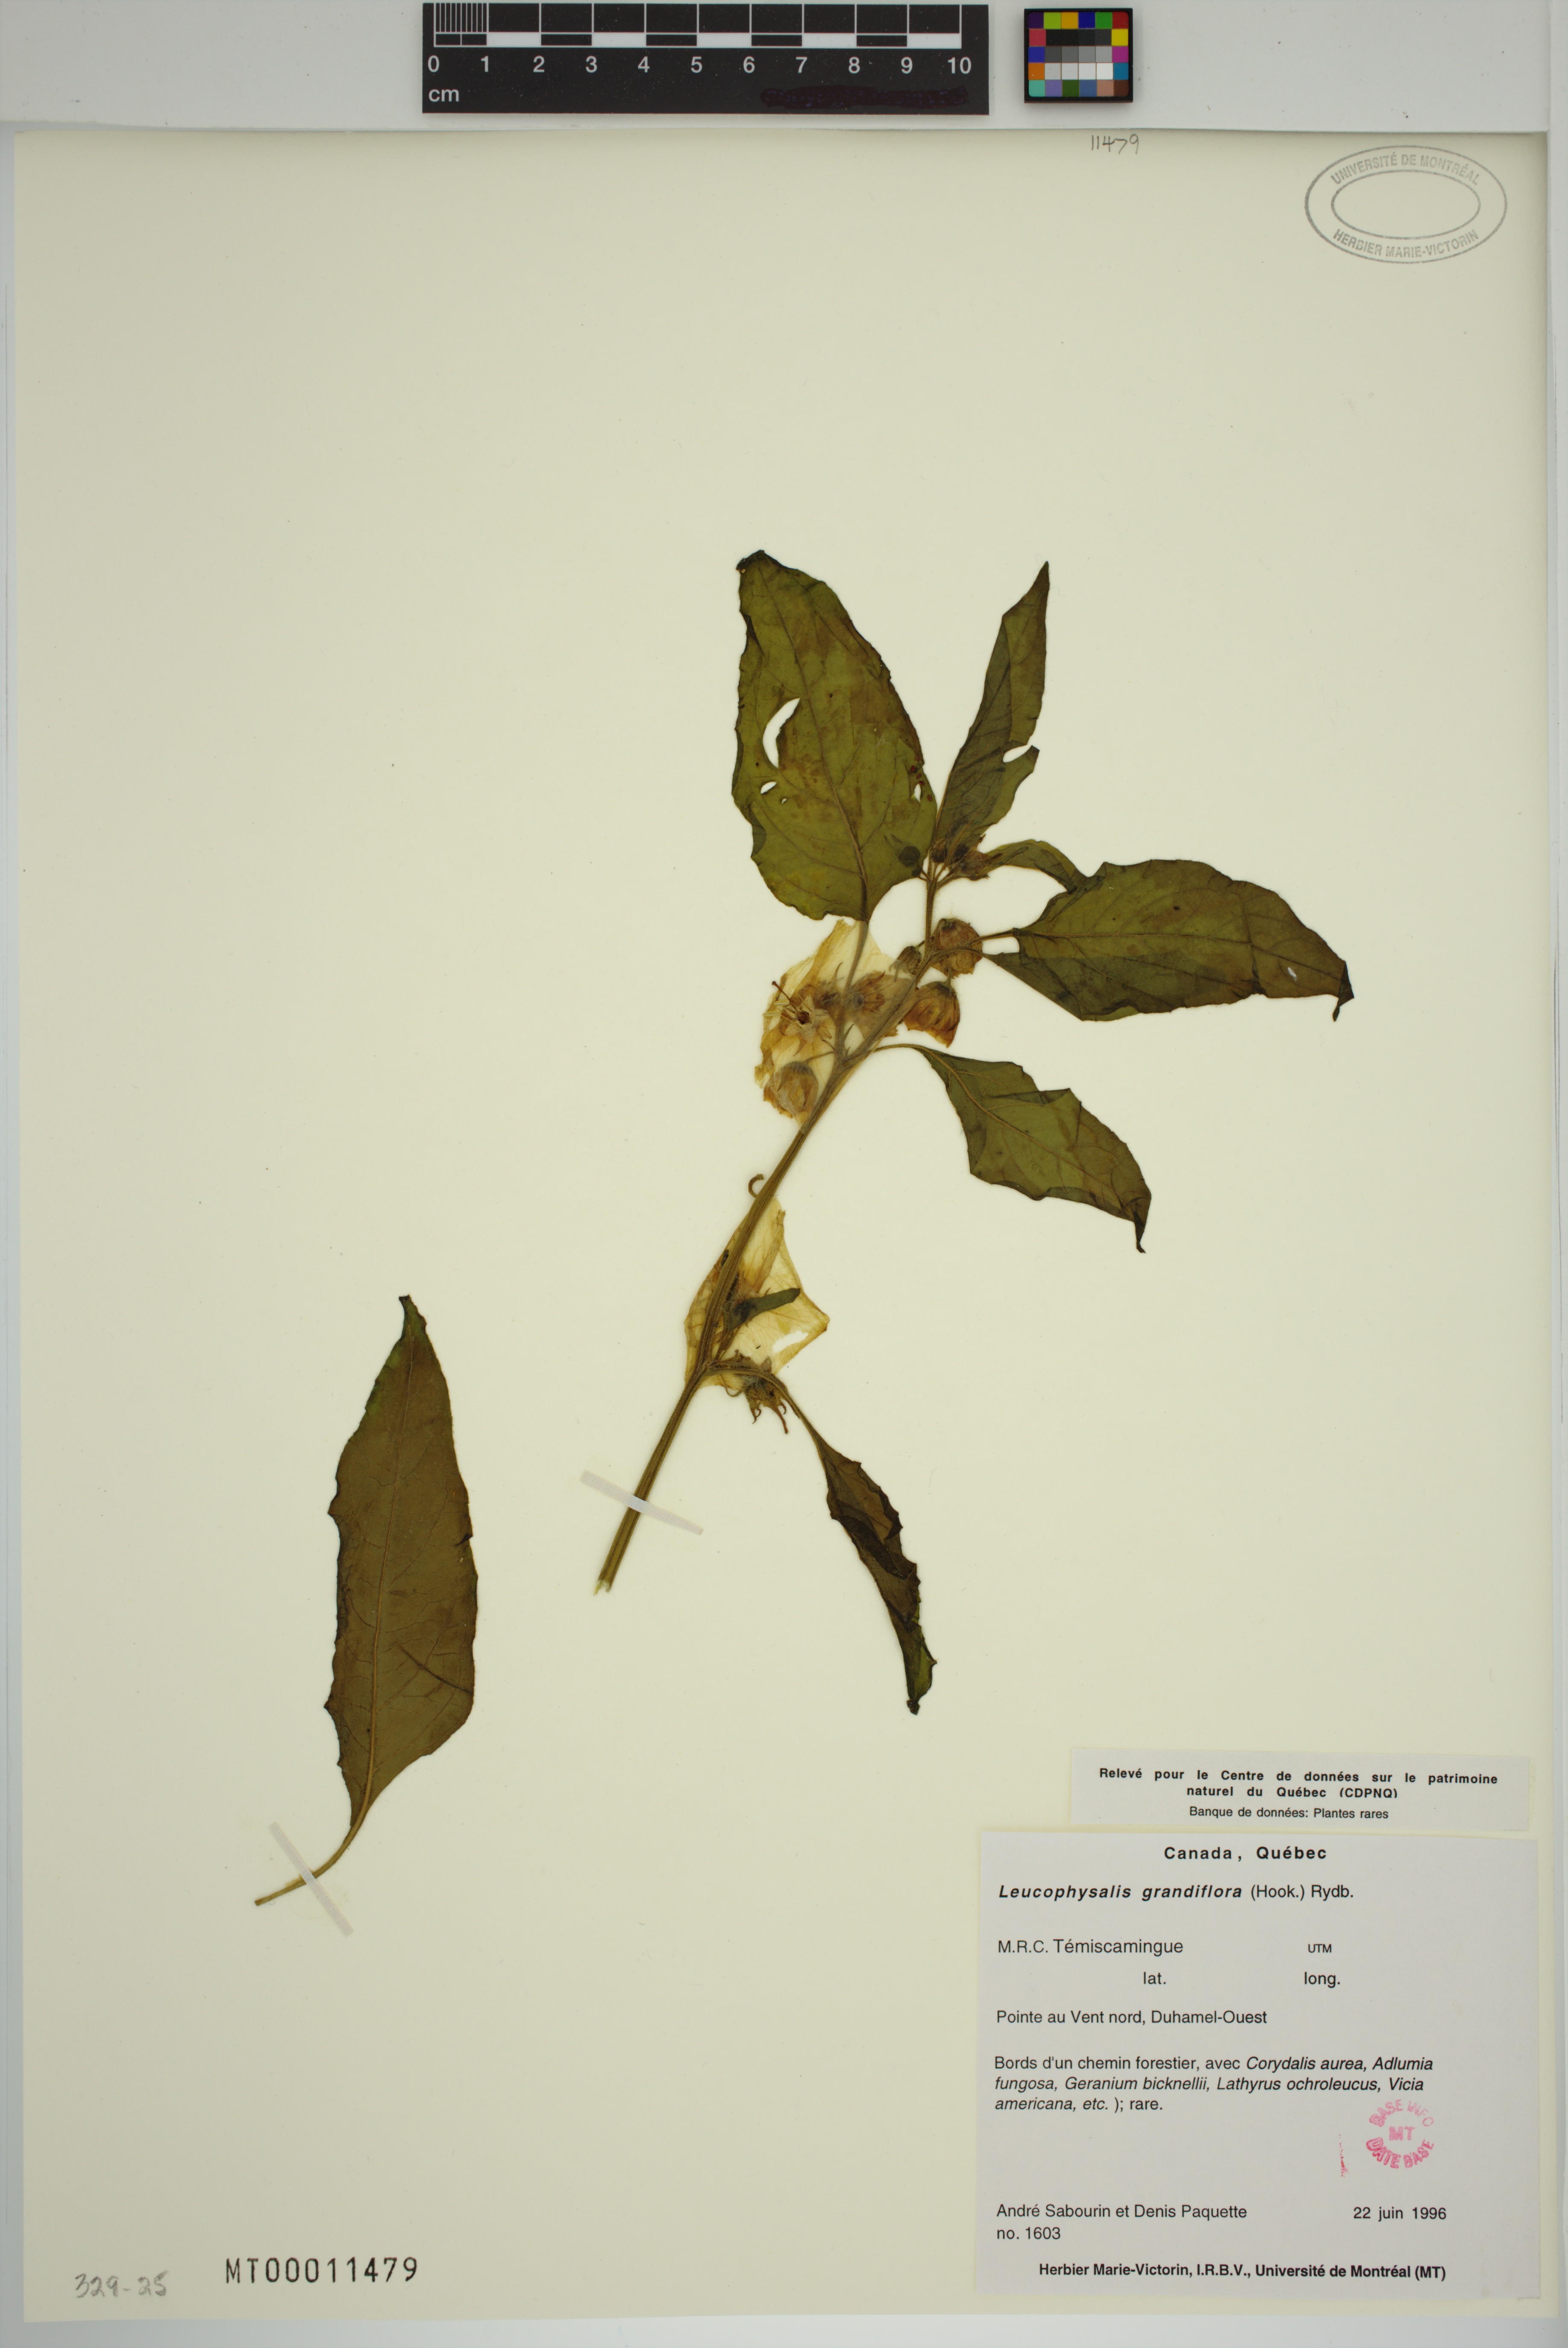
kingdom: Plantae
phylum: Tracheophyta
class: Magnoliopsida
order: Solanales
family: Solanaceae
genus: Leucophysalis
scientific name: Leucophysalis grandiflora
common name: Large false ground-cherry
